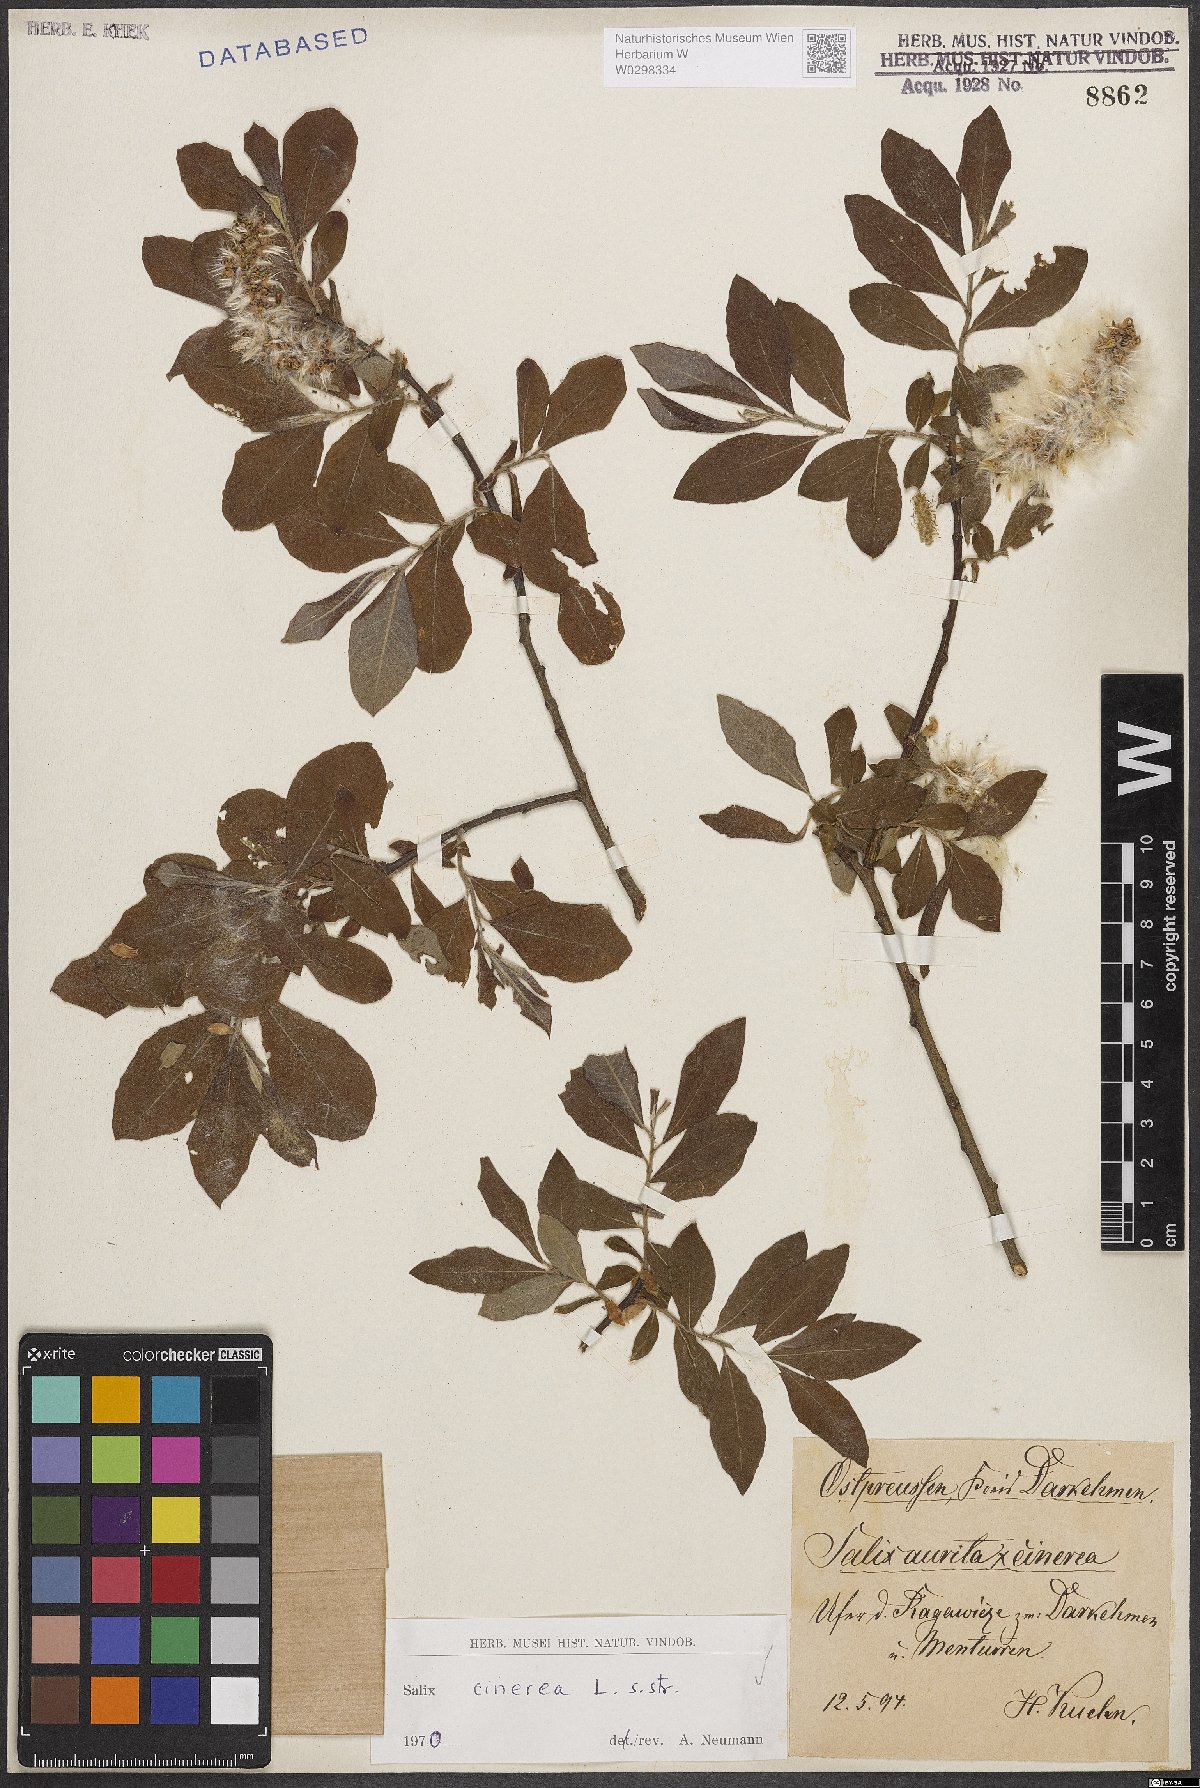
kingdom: Plantae
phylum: Tracheophyta
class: Magnoliopsida
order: Malpighiales
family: Salicaceae
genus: Salix
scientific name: Salix cinerea
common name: Common sallow
